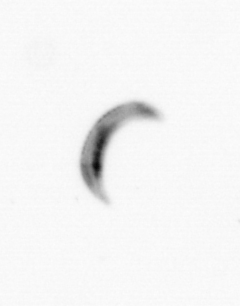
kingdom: Chromista
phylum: Ochrophyta
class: Bacillariophyceae
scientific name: Bacillariophyceae
